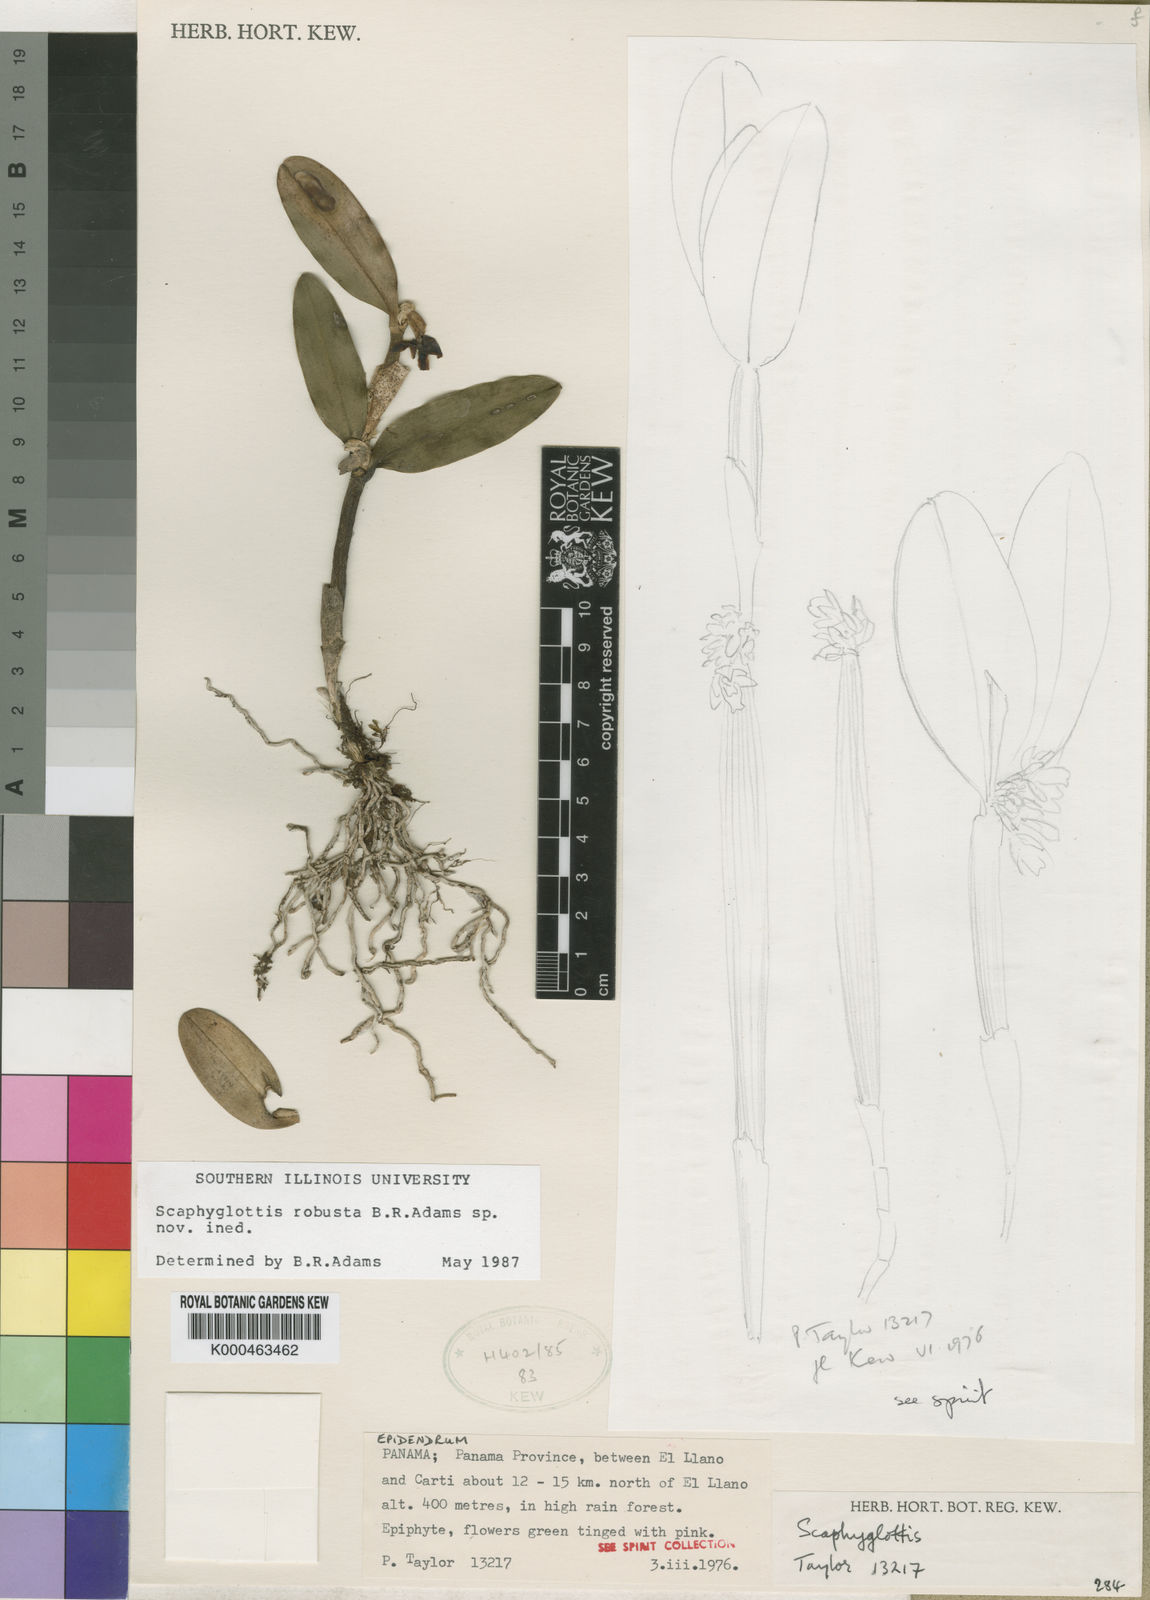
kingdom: Plantae
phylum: Tracheophyta
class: Liliopsida
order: Asparagales
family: Orchidaceae
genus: Scaphyglottis
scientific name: Scaphyglottis robusta
